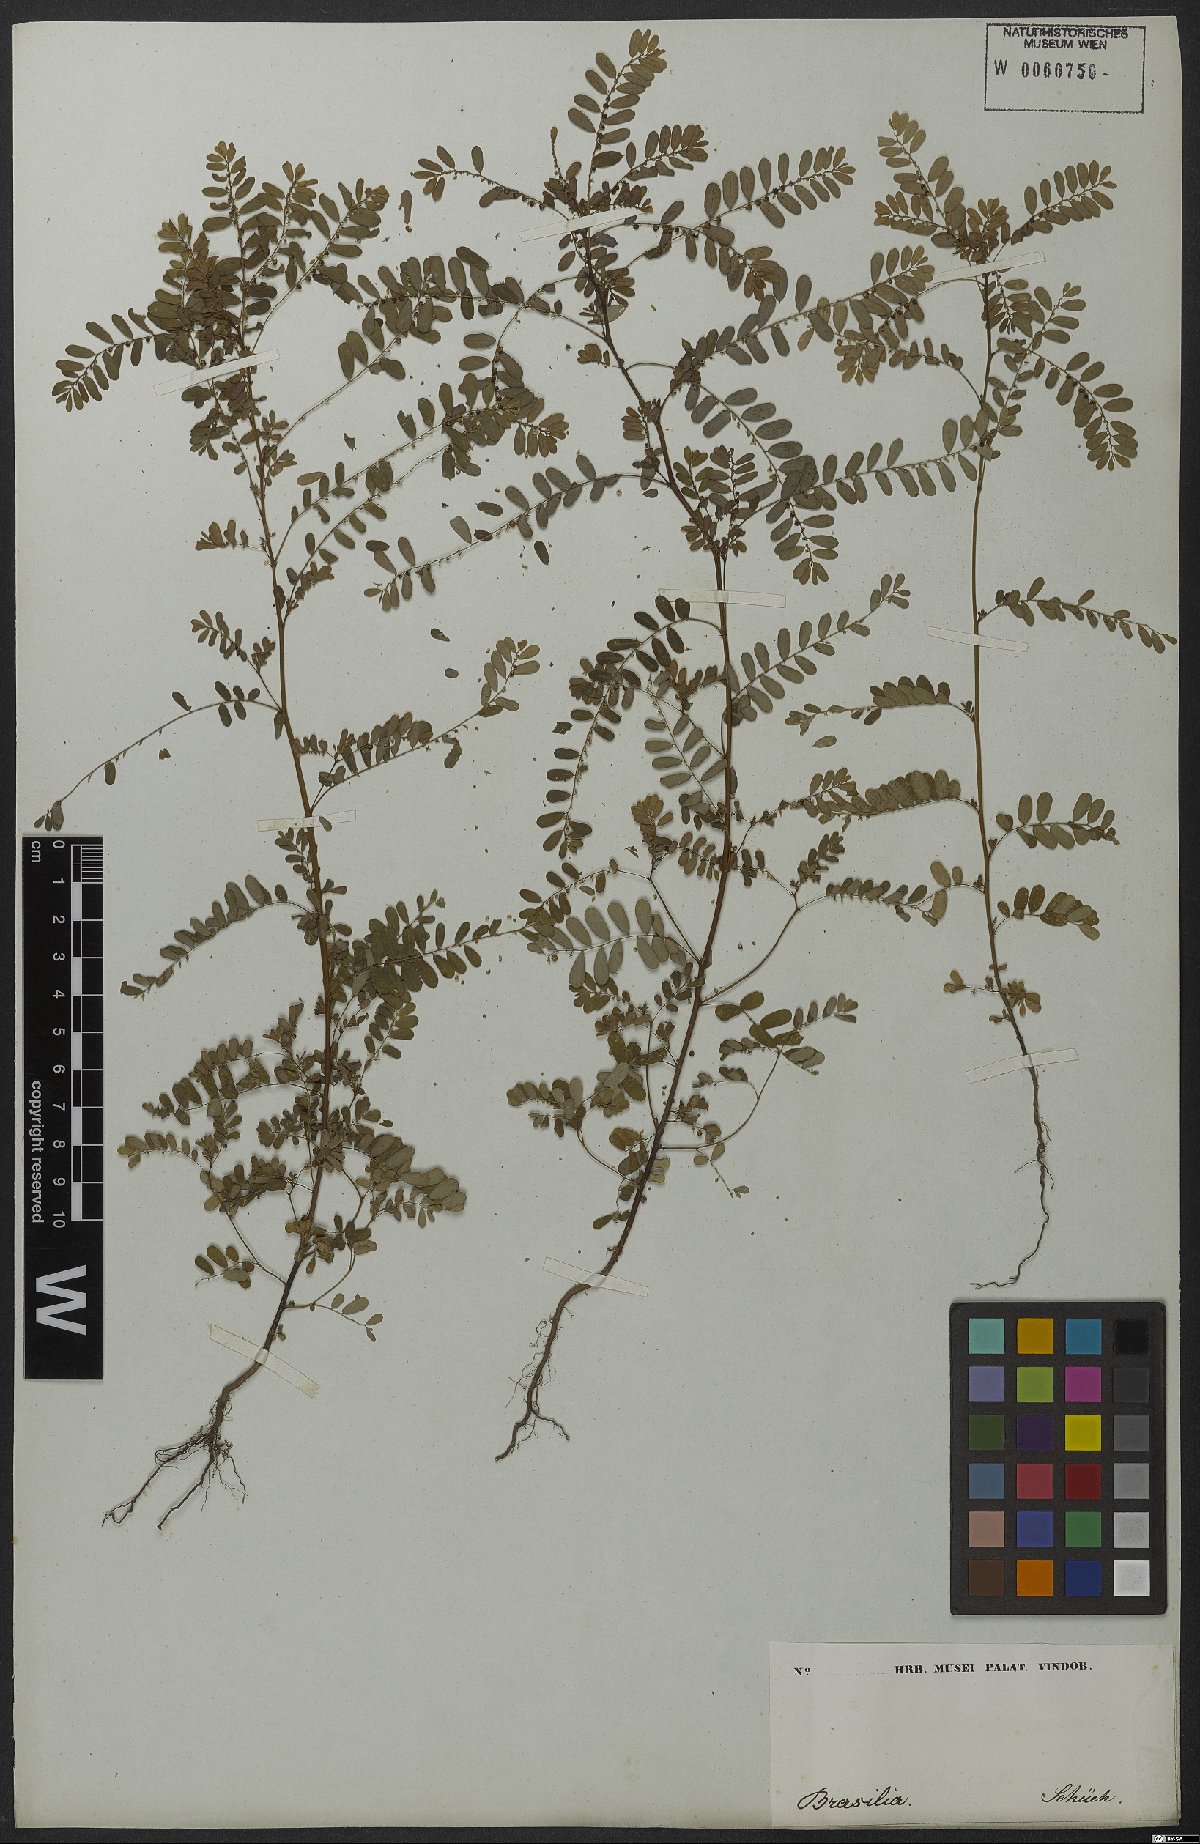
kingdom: Plantae
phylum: Tracheophyta
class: Magnoliopsida
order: Malpighiales
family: Phyllanthaceae
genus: Phyllanthus
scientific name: Phyllanthus urinaria
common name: Chamber bitter
